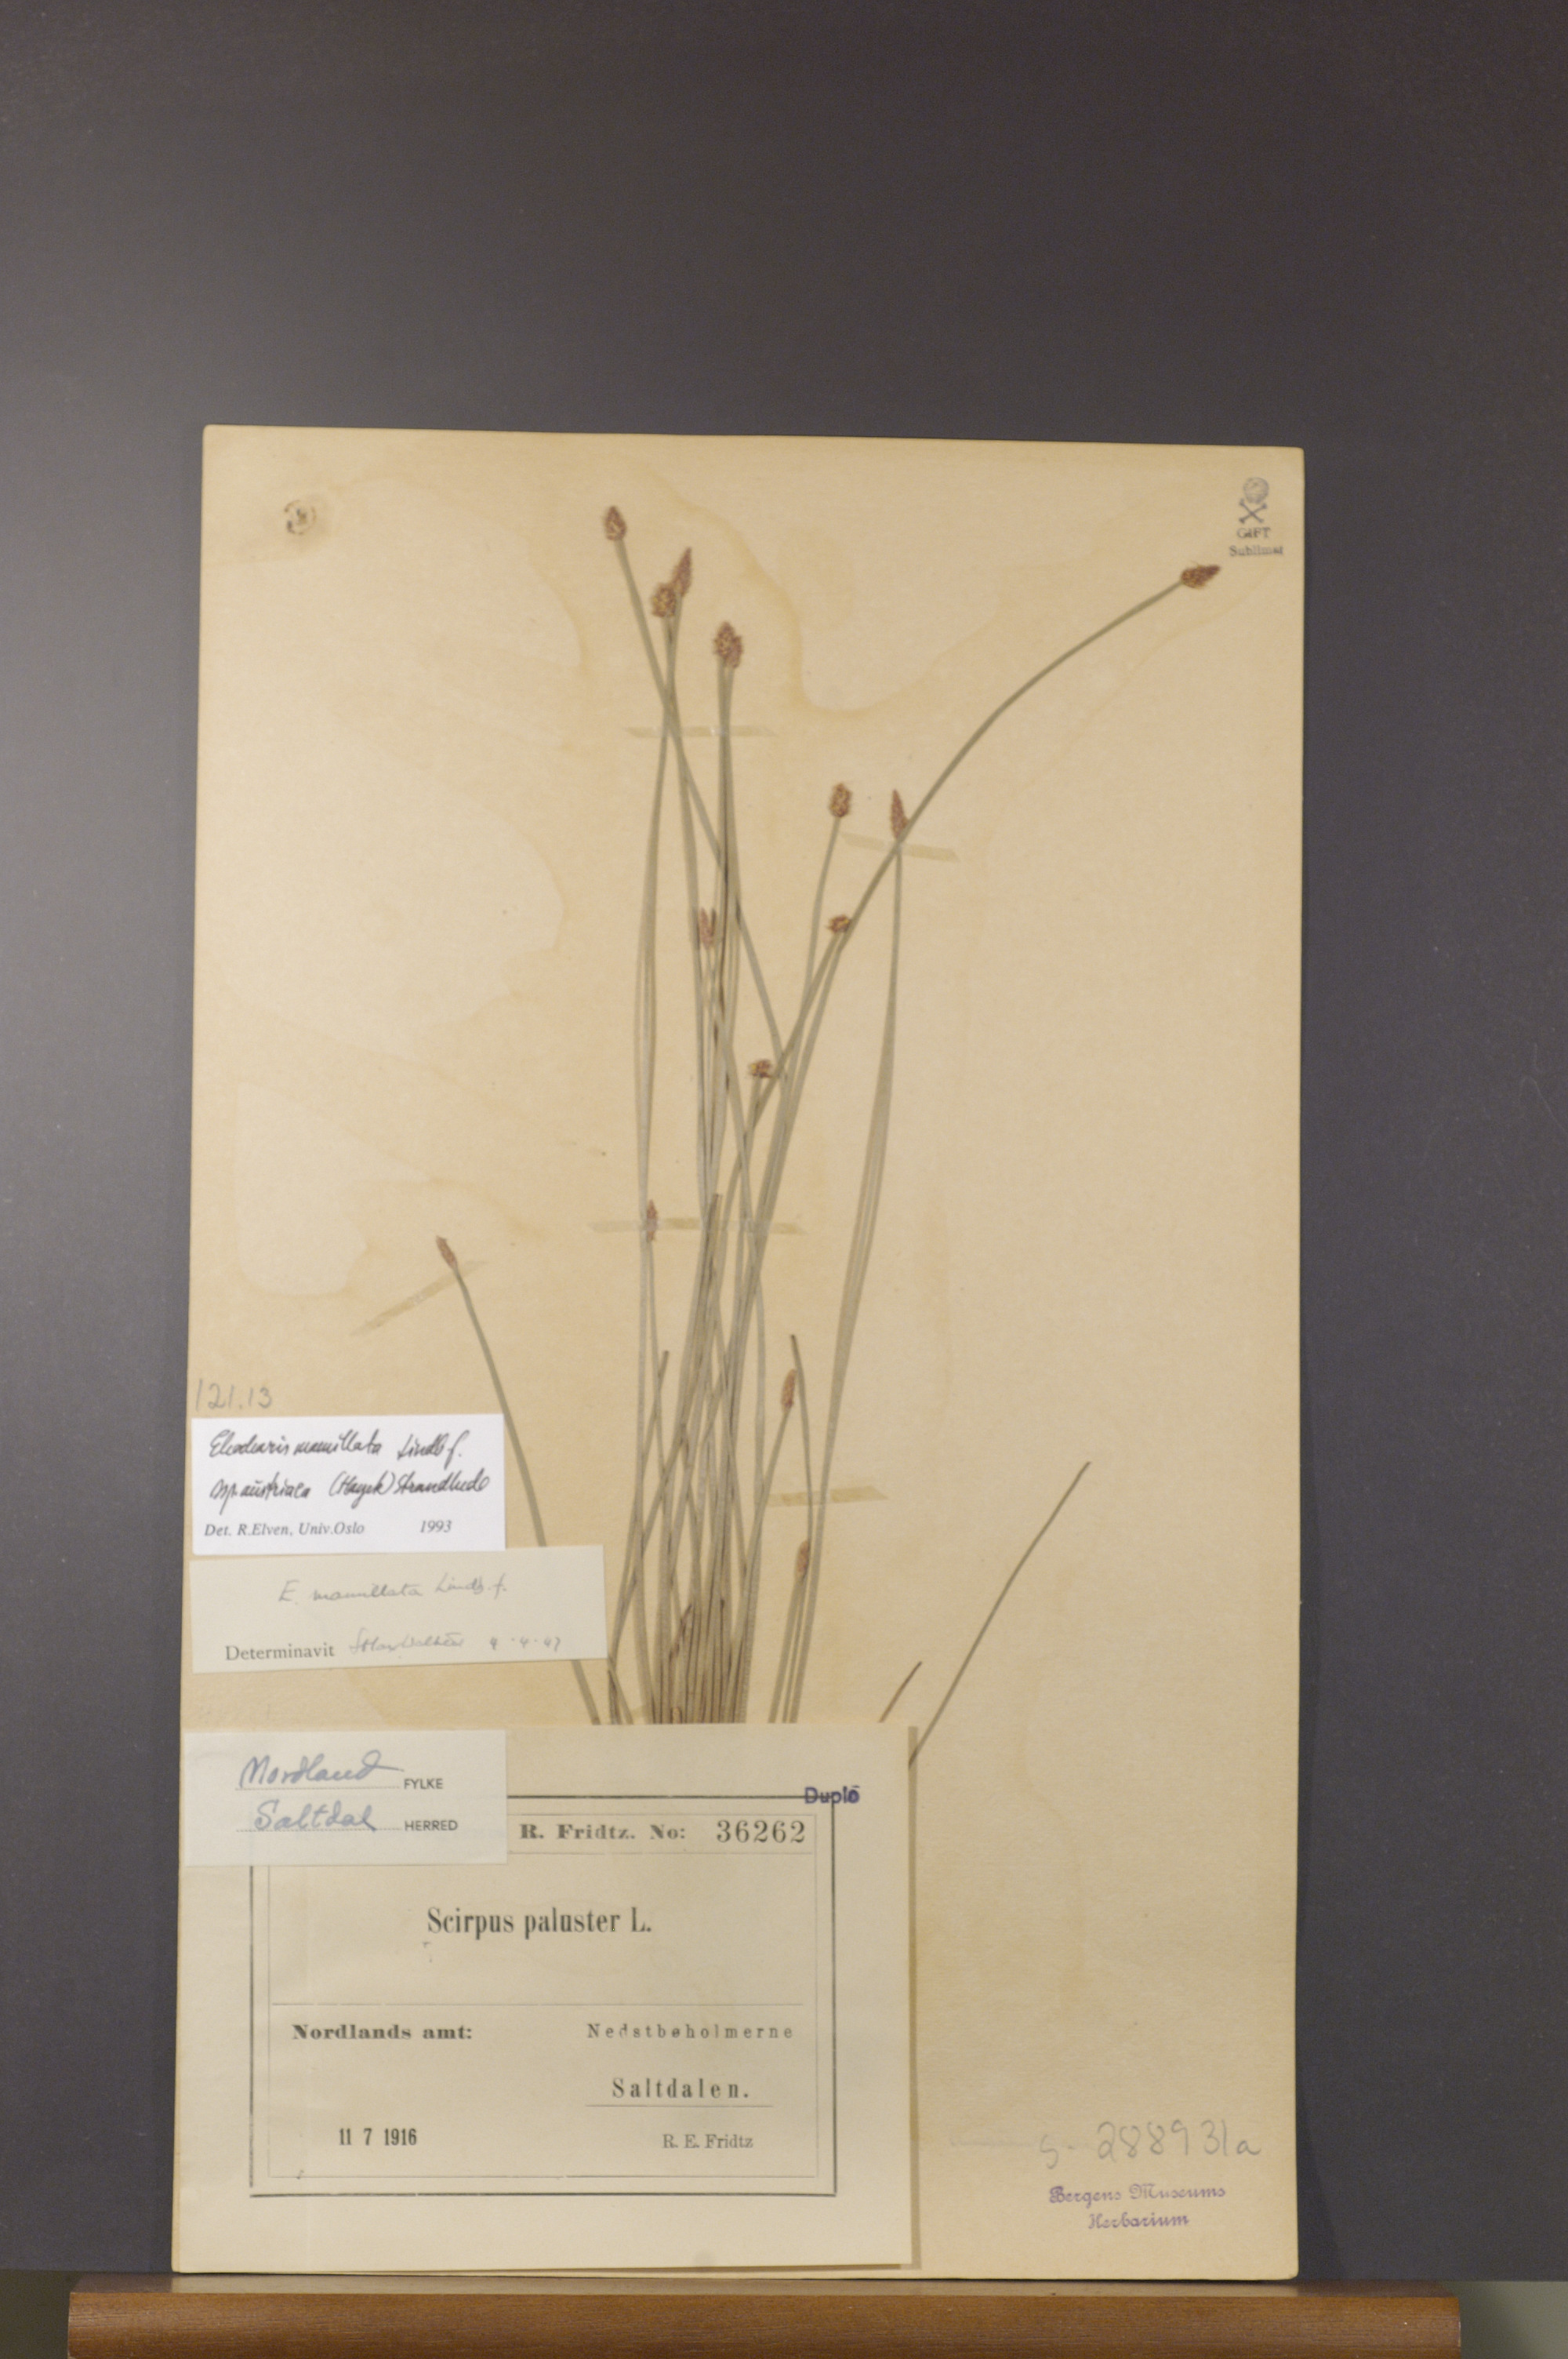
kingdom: Plantae
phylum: Tracheophyta
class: Liliopsida
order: Poales
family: Cyperaceae
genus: Eleocharis
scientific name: Eleocharis mamillata
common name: Northern spike-rush
